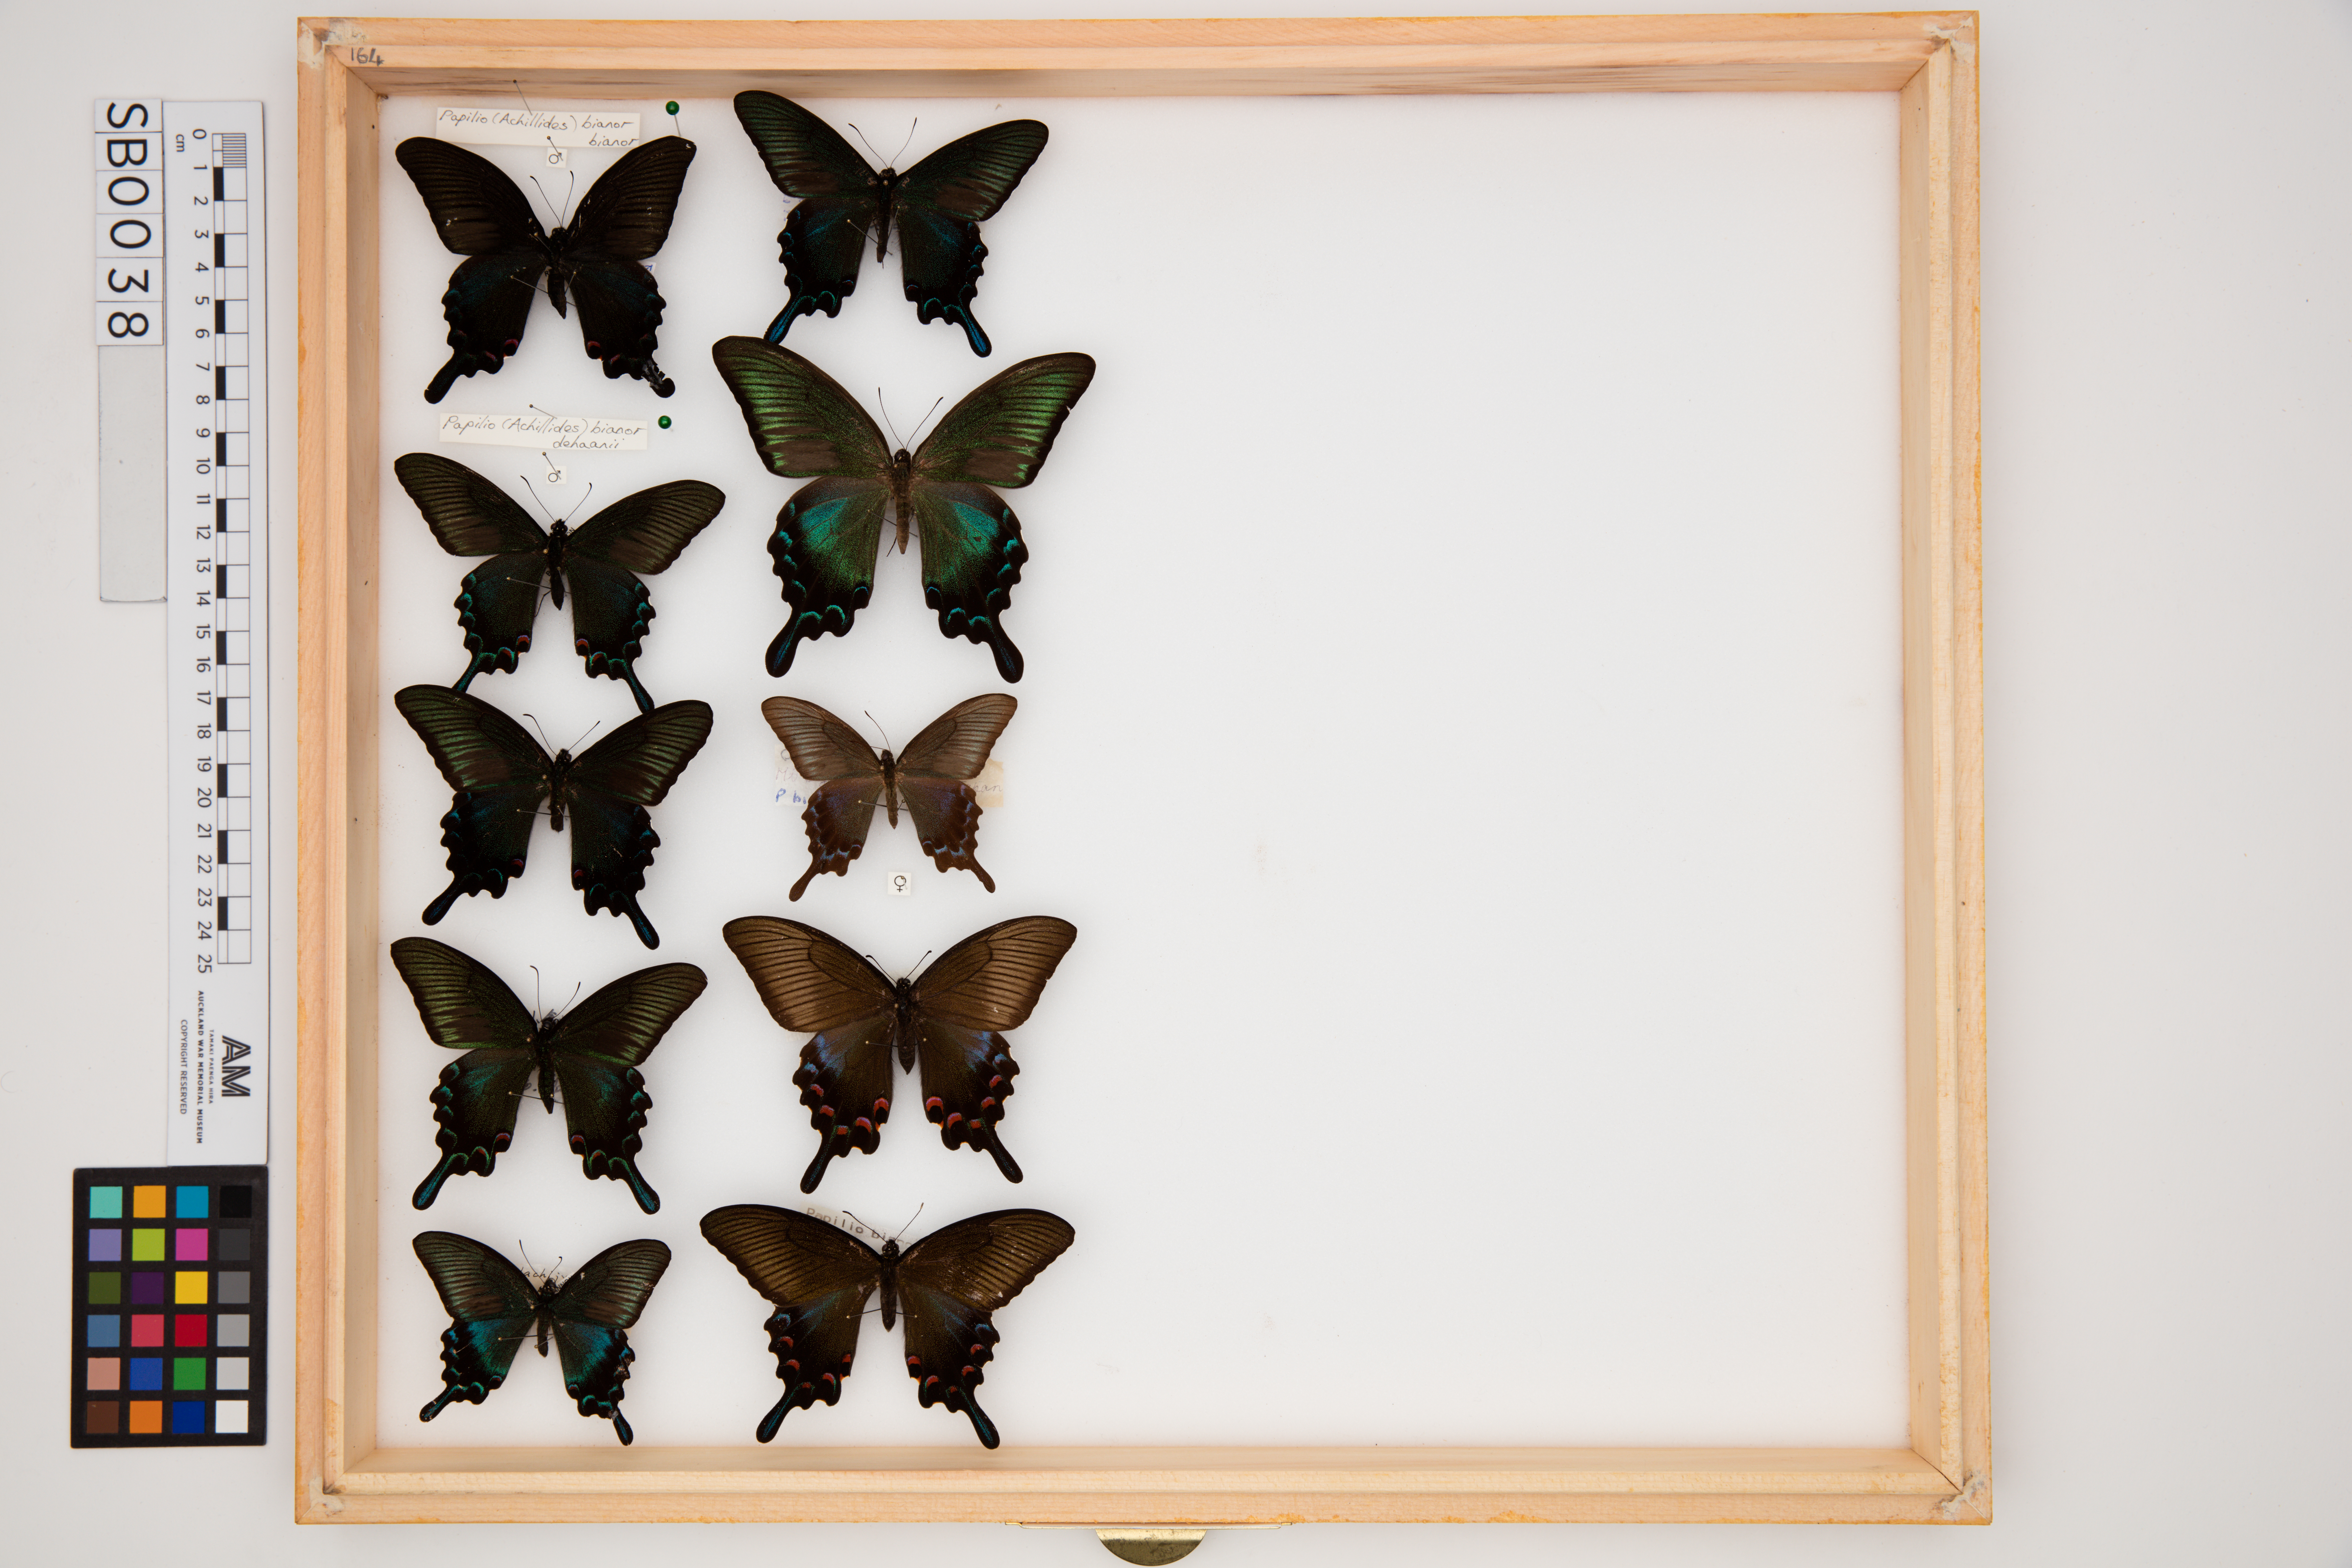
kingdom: Animalia
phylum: Arthropoda
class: Insecta
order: Lepidoptera
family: Papilionidae
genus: Papilio
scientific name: Papilio bianor
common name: Common peacock
